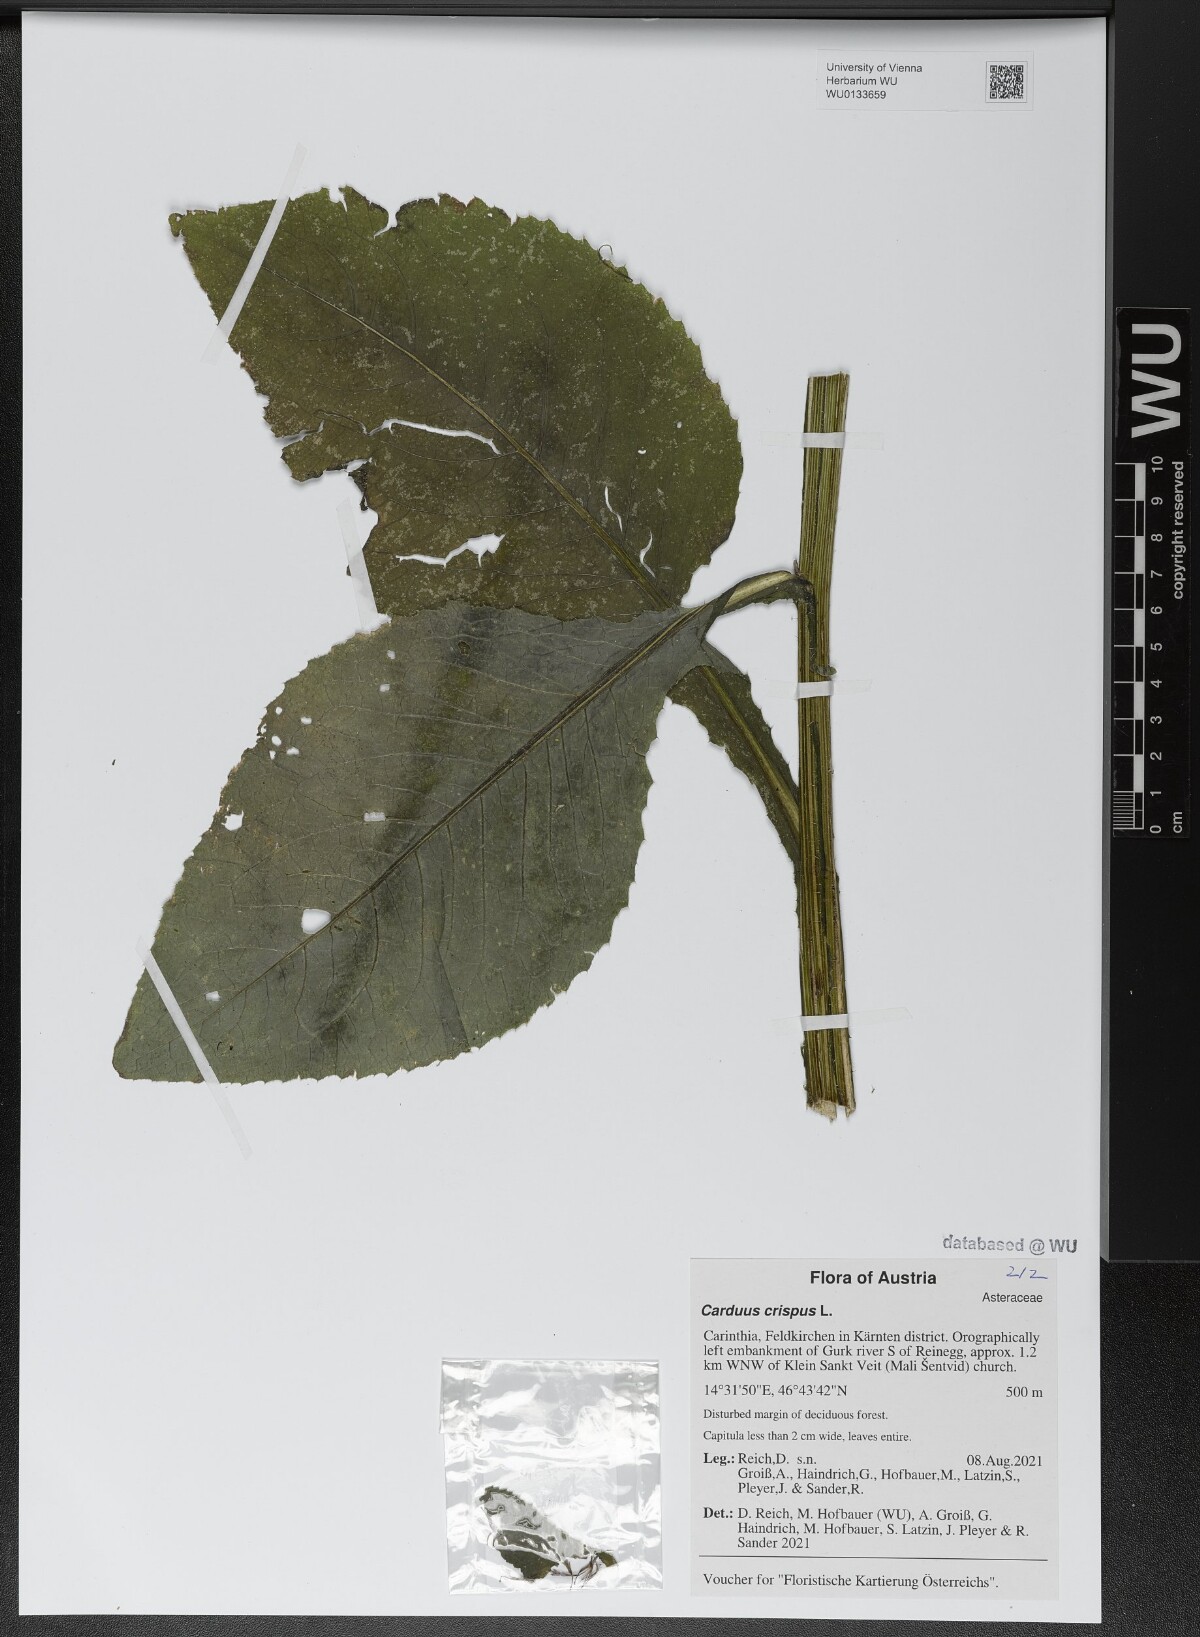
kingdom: Plantae
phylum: Tracheophyta
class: Magnoliopsida
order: Asterales
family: Asteraceae
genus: Carduus
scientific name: Carduus crispus
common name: Welted thistle
